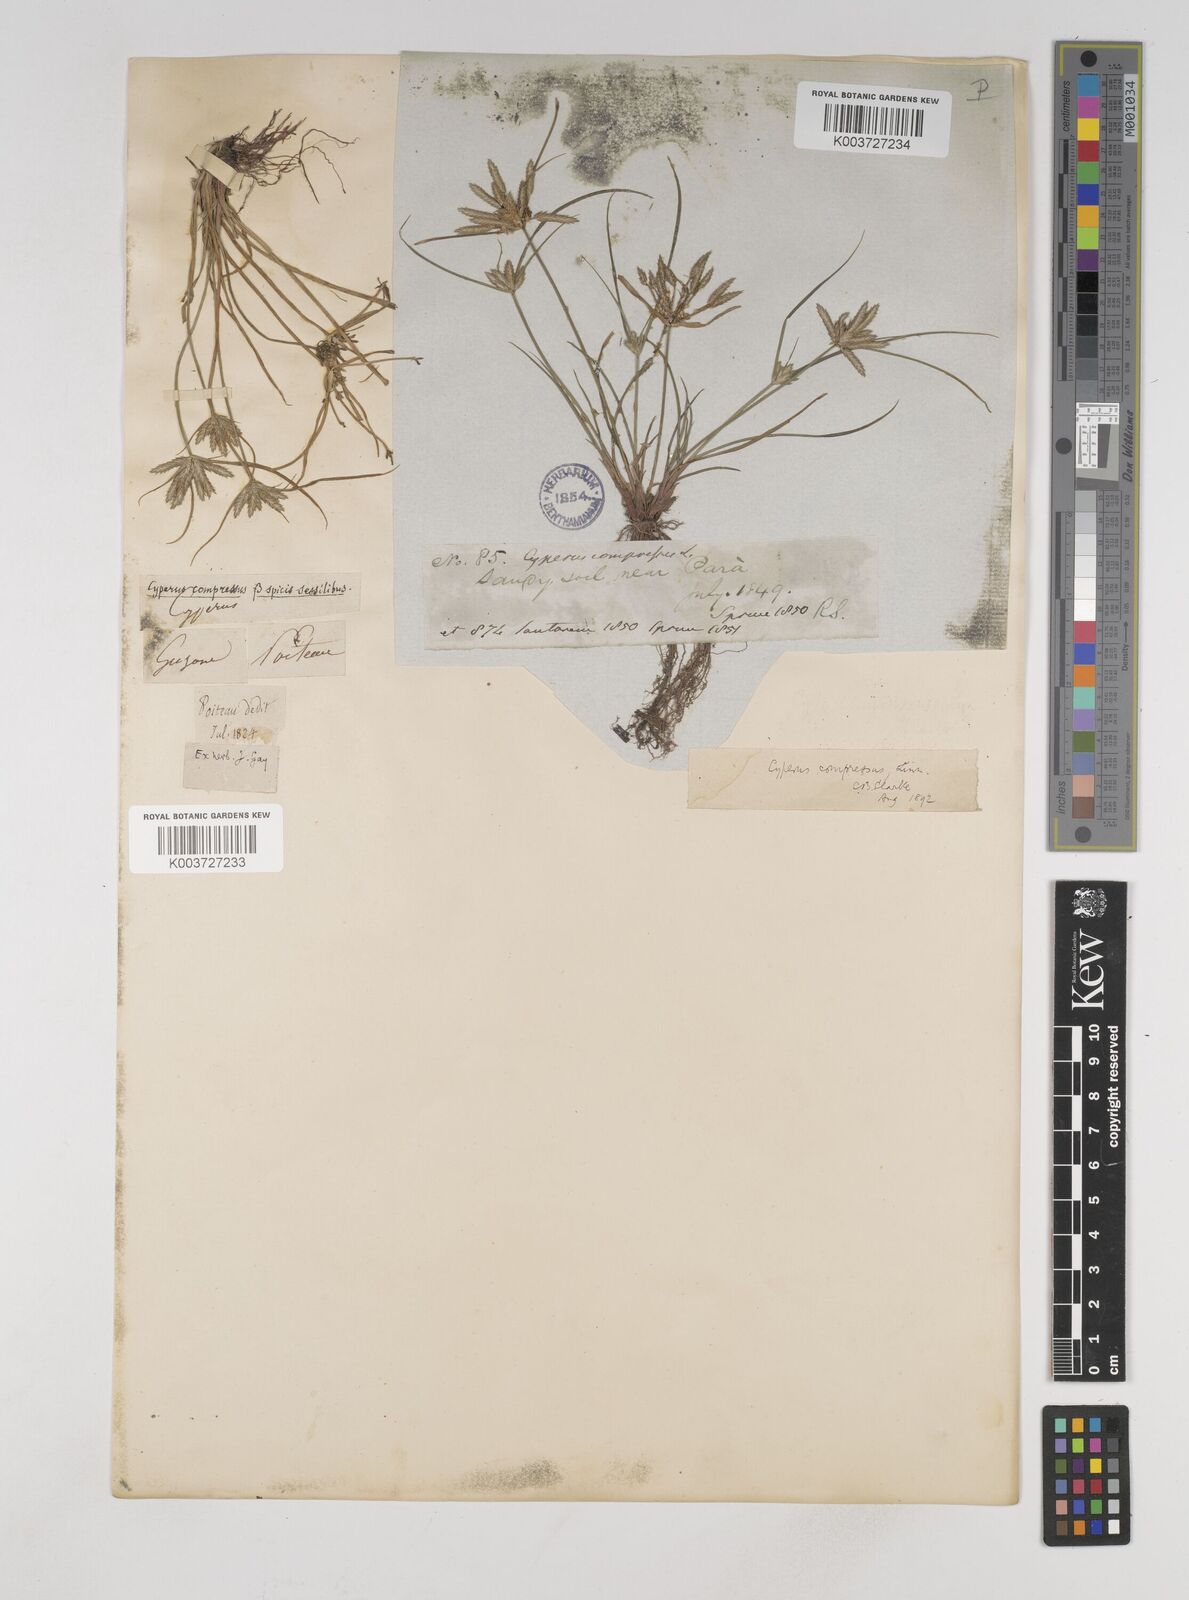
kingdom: Plantae
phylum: Tracheophyta
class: Liliopsida
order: Poales
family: Cyperaceae
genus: Cyperus
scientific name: Cyperus compressus
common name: Poorland flatsedge
